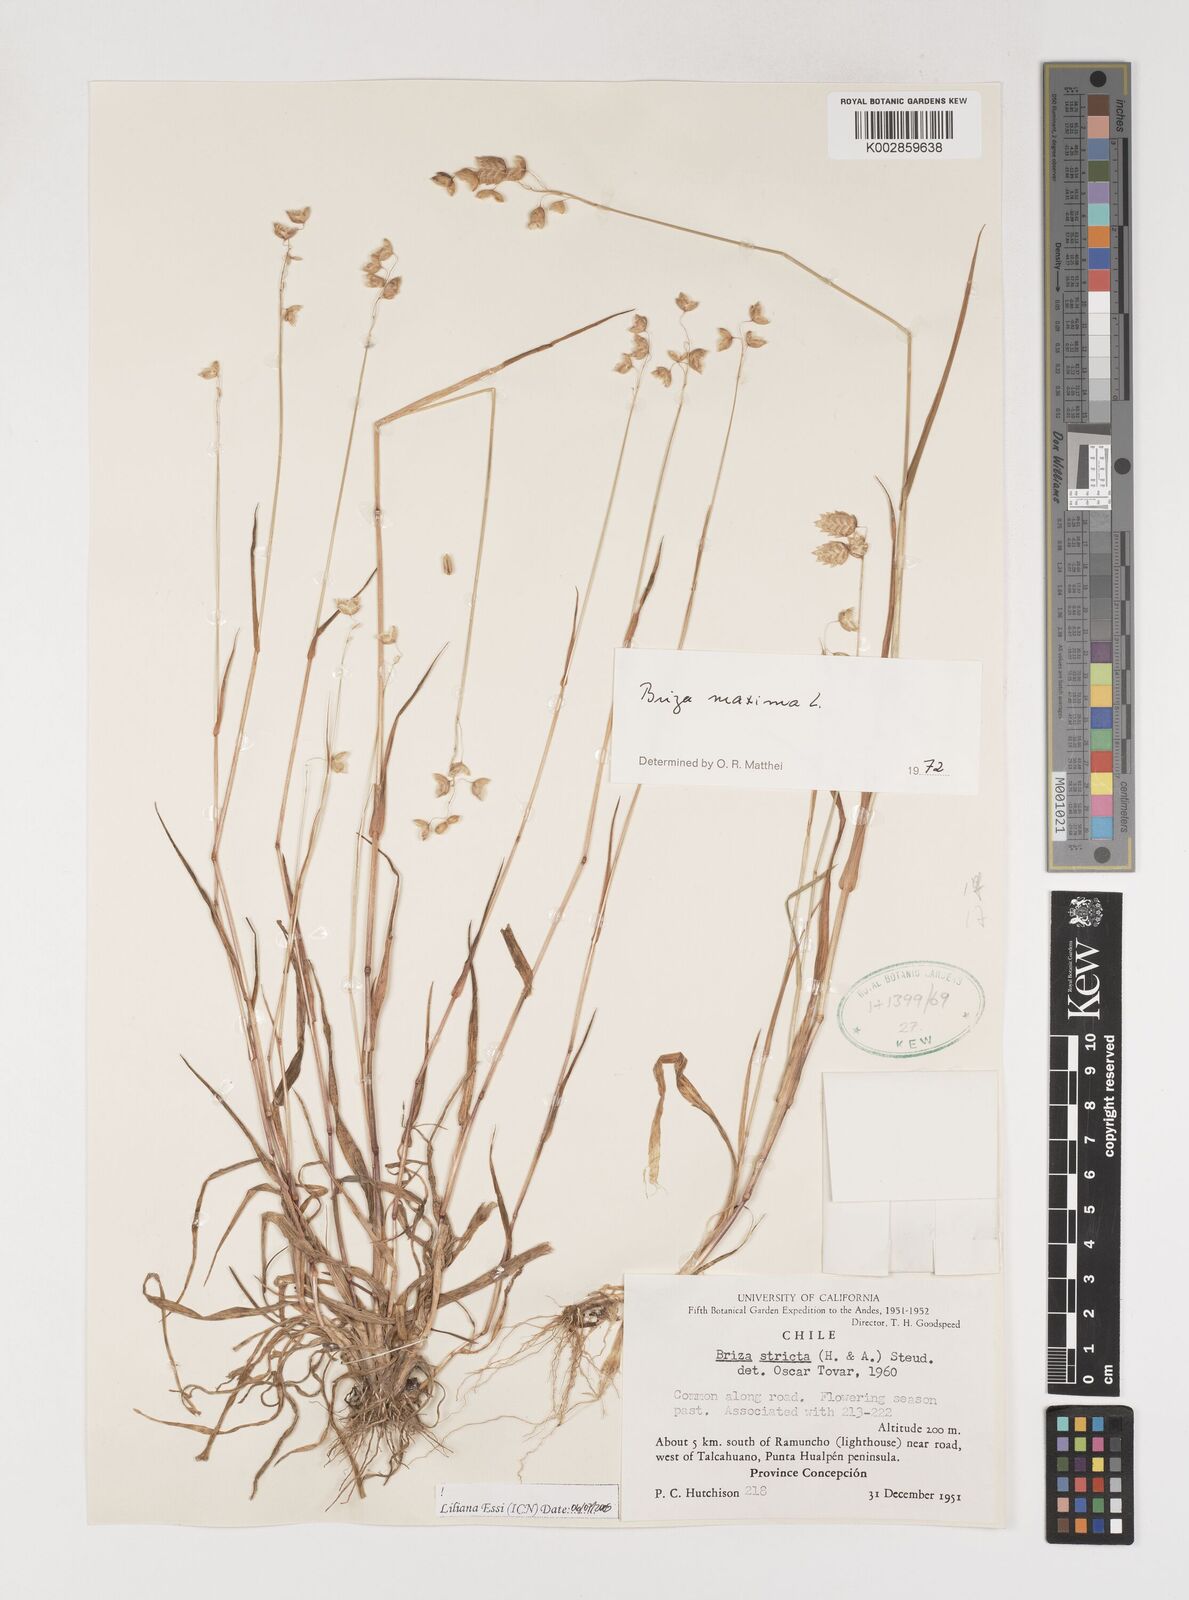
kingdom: Plantae
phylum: Tracheophyta
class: Liliopsida
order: Poales
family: Poaceae
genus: Briza
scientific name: Briza maxima
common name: Big quakinggrass
